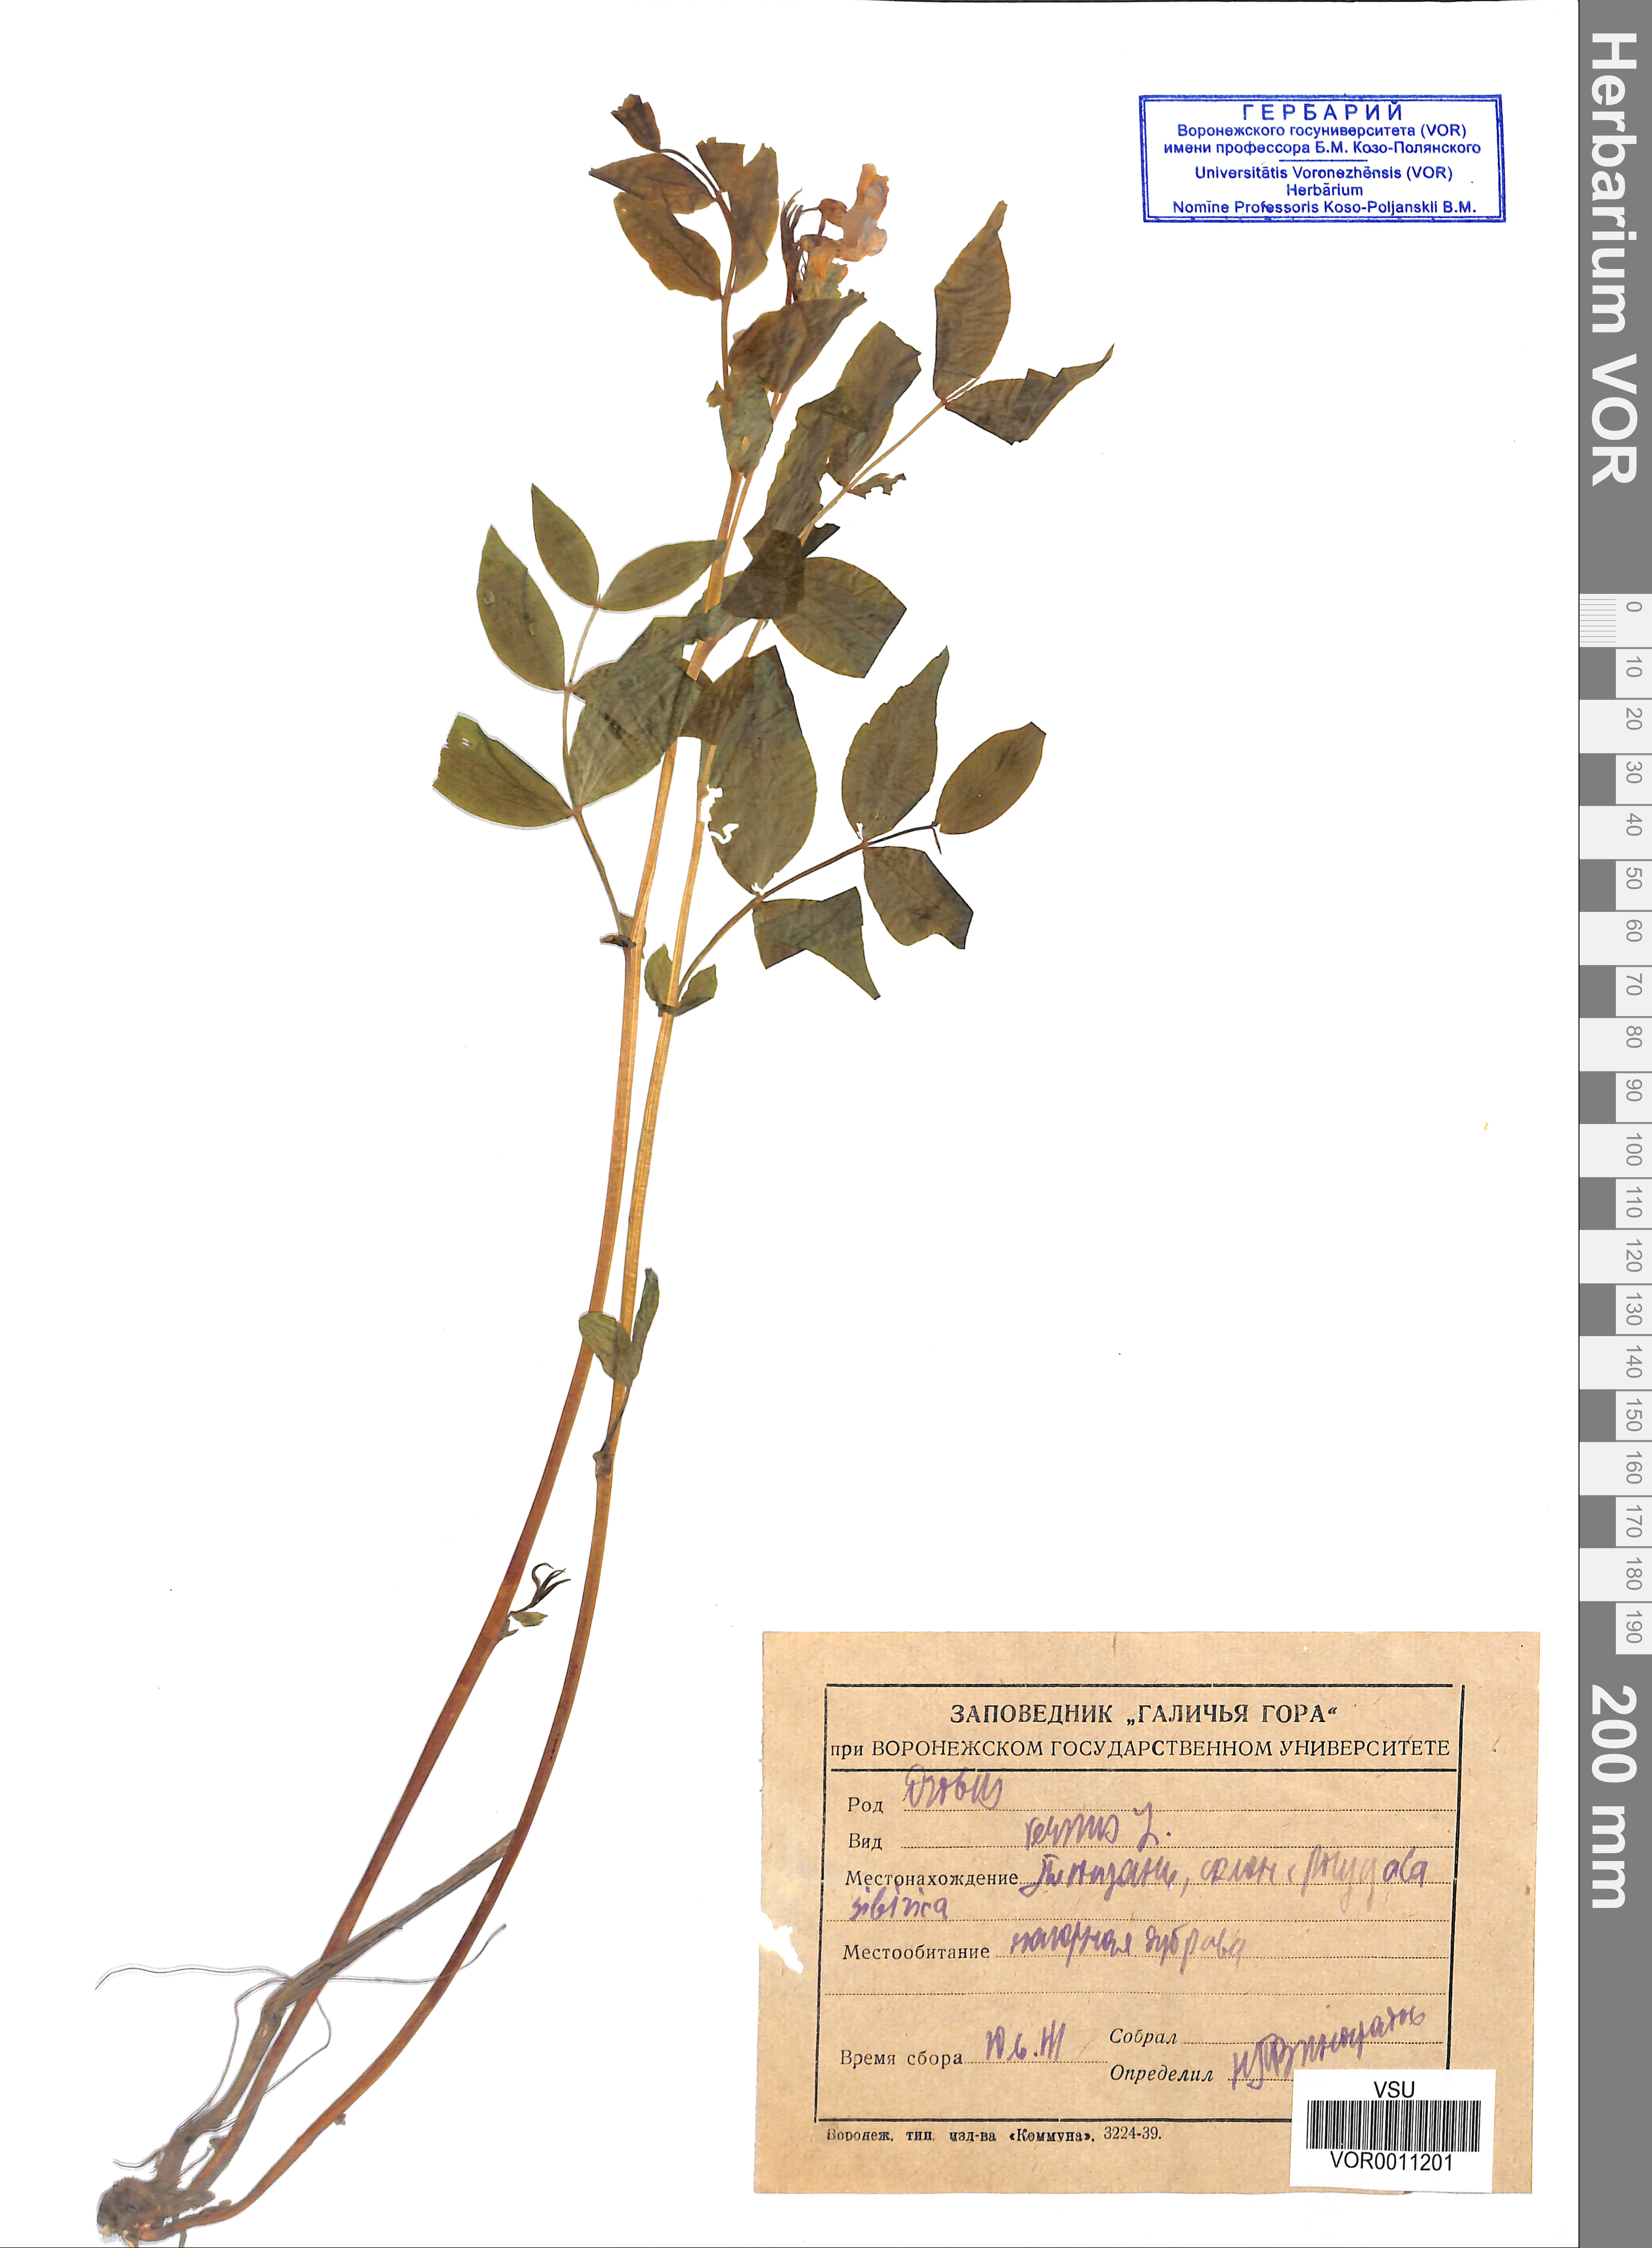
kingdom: Plantae
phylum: Tracheophyta
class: Magnoliopsida
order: Fabales
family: Fabaceae
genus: Lathyrus
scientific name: Lathyrus vernus
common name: Spring pea
